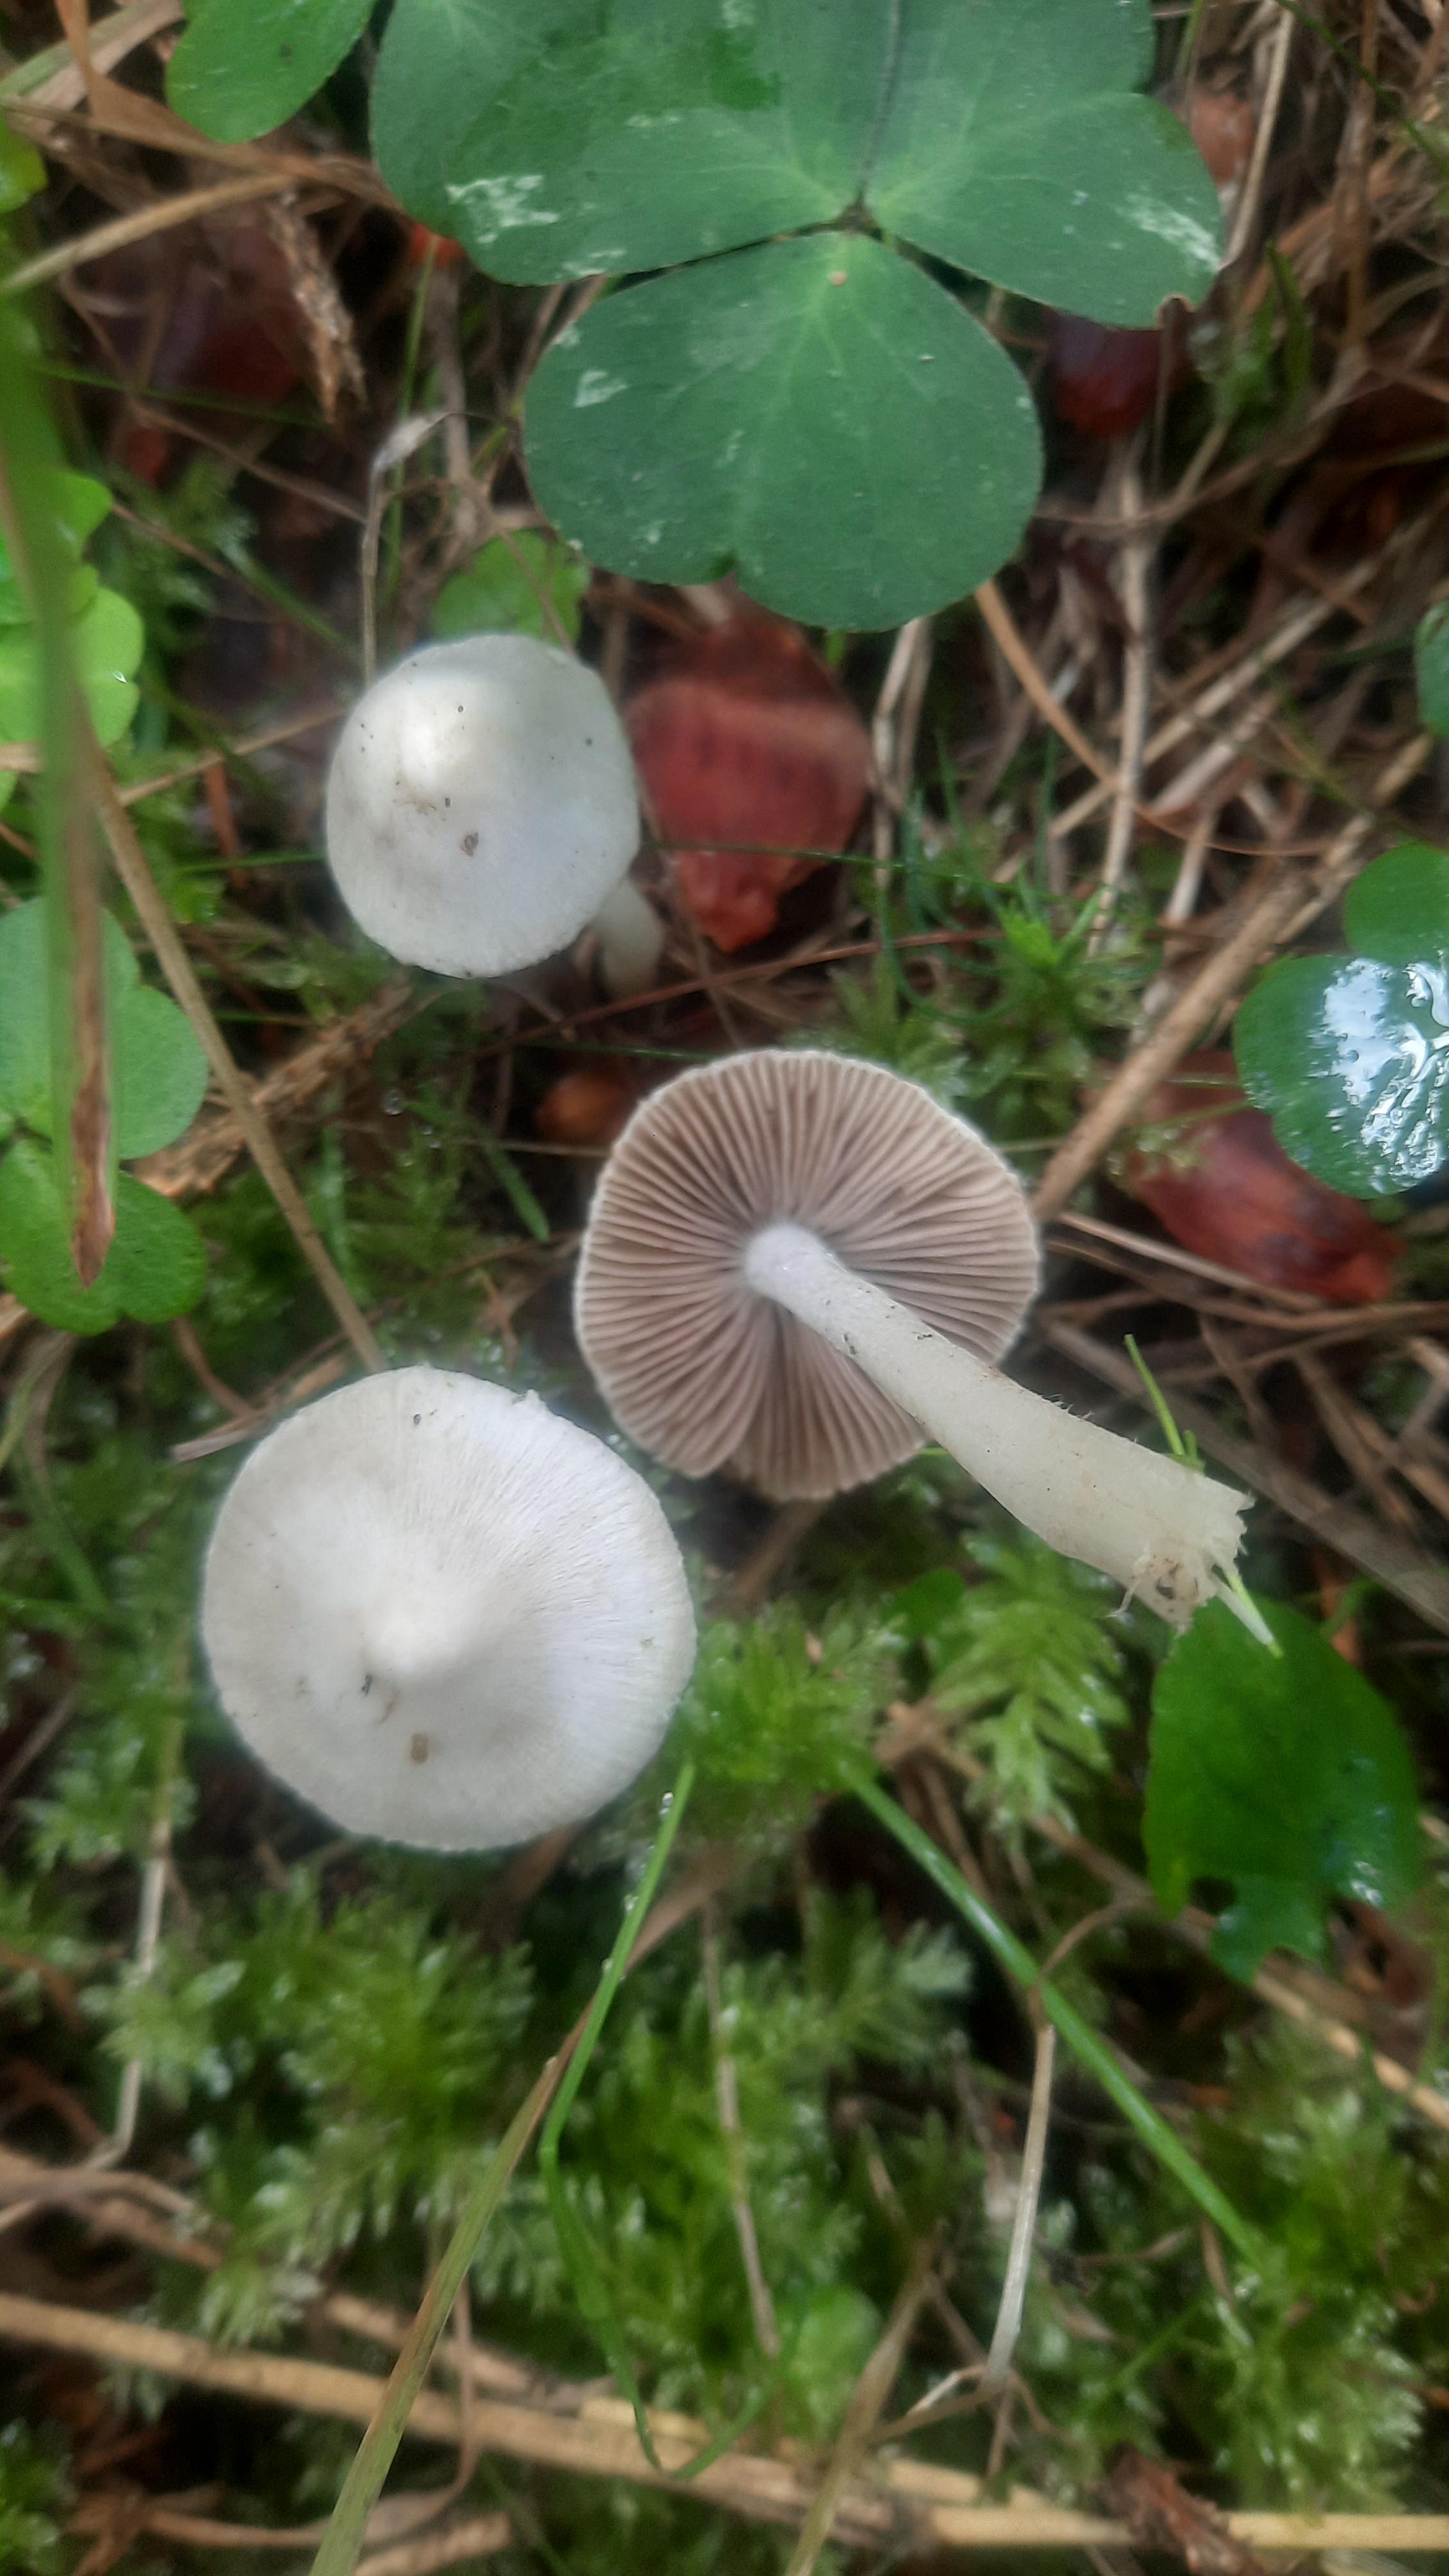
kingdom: Fungi
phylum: Basidiomycota
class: Agaricomycetes
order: Agaricales
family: Inocybaceae
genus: Inocybe
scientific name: Inocybe
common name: almindelig trævlhat
